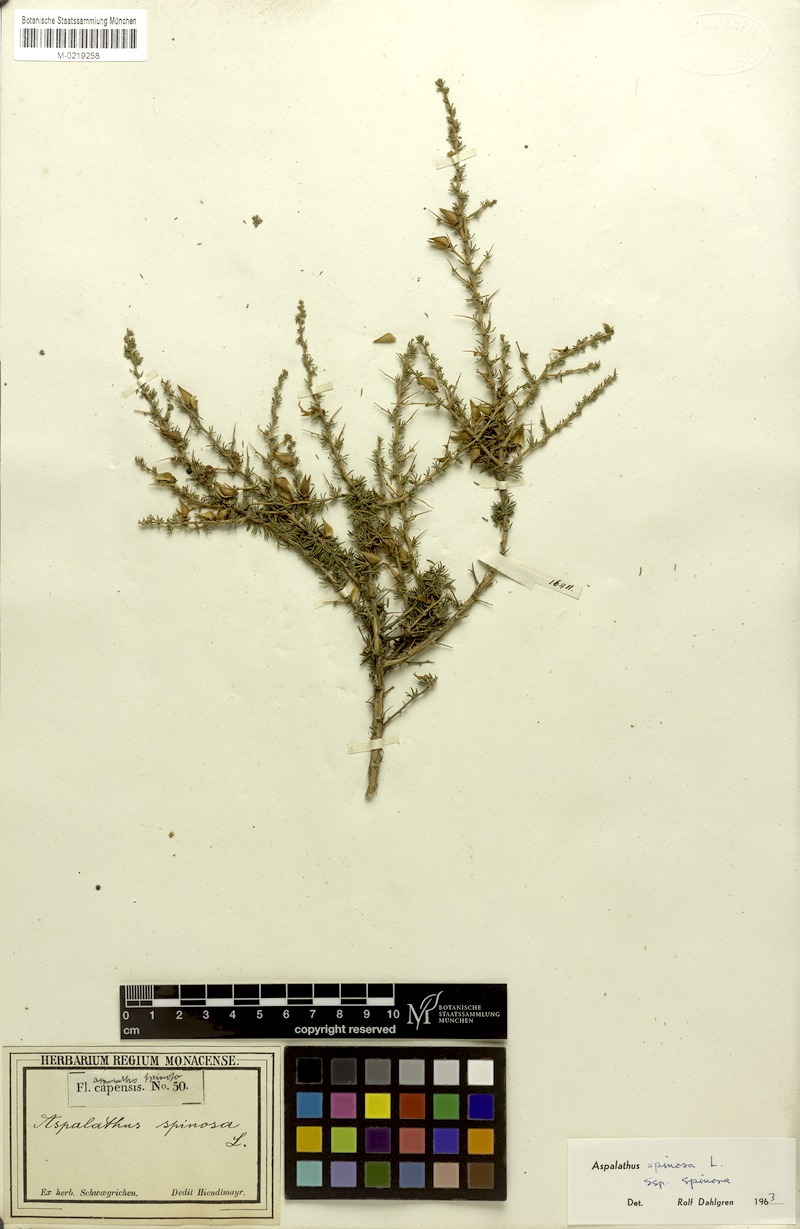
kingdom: Plantae
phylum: Tracheophyta
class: Magnoliopsida
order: Fabales
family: Fabaceae
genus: Aspalathus
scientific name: Aspalathus spinosa
